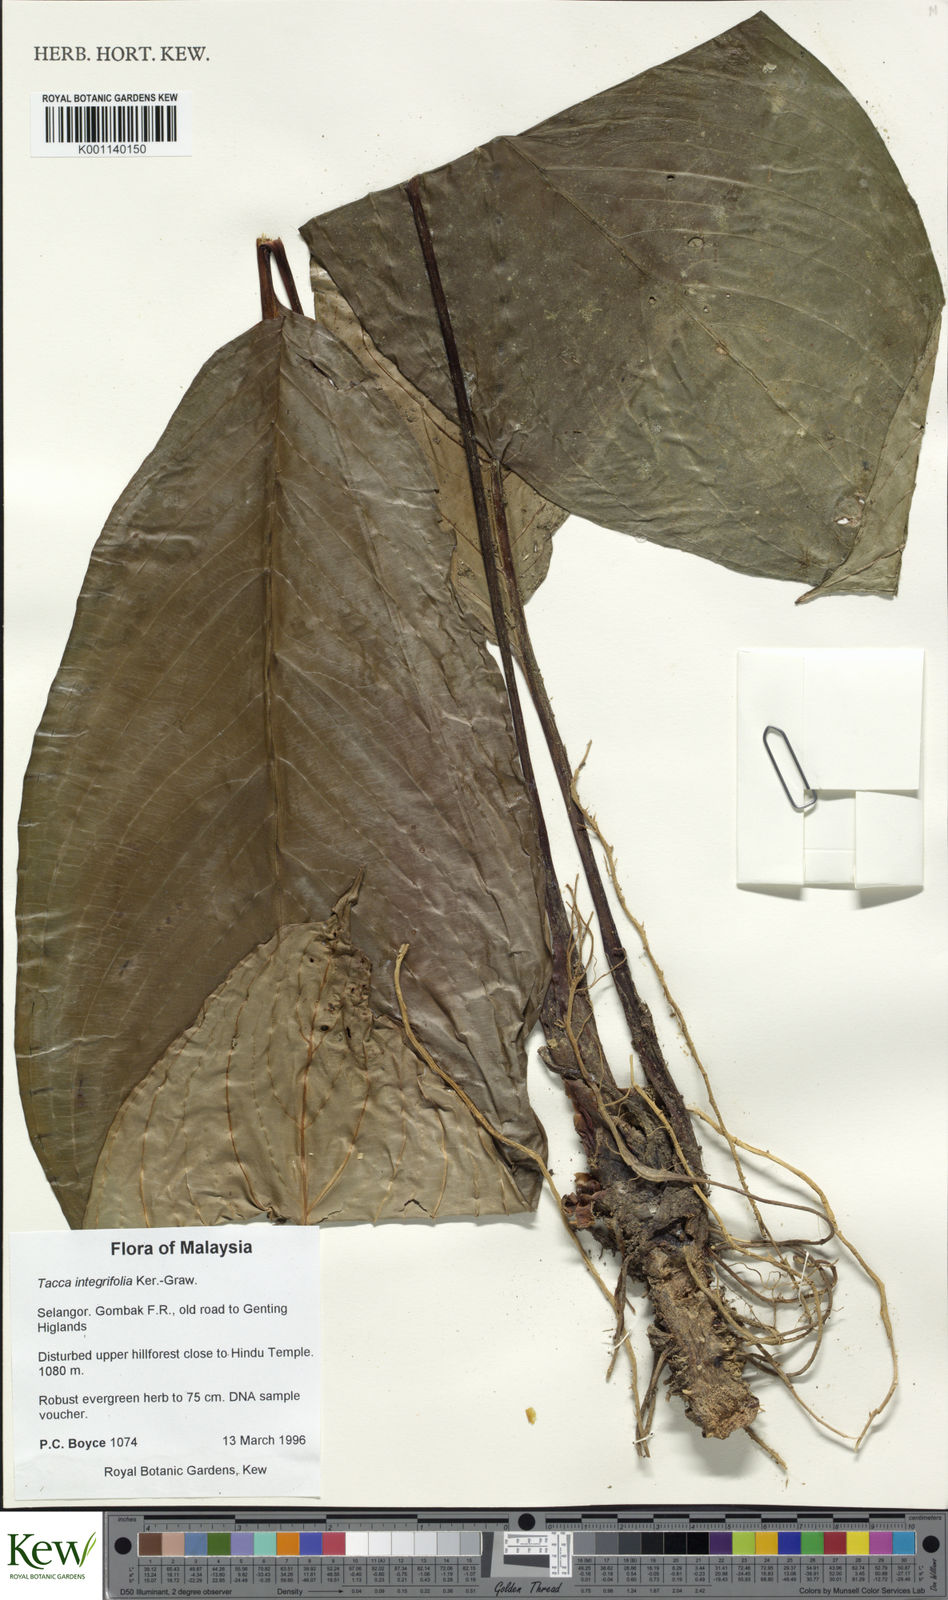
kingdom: Plantae
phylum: Tracheophyta
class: Liliopsida
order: Dioscoreales
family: Dioscoreaceae
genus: Tacca
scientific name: Tacca integrifolia
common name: Batplant
